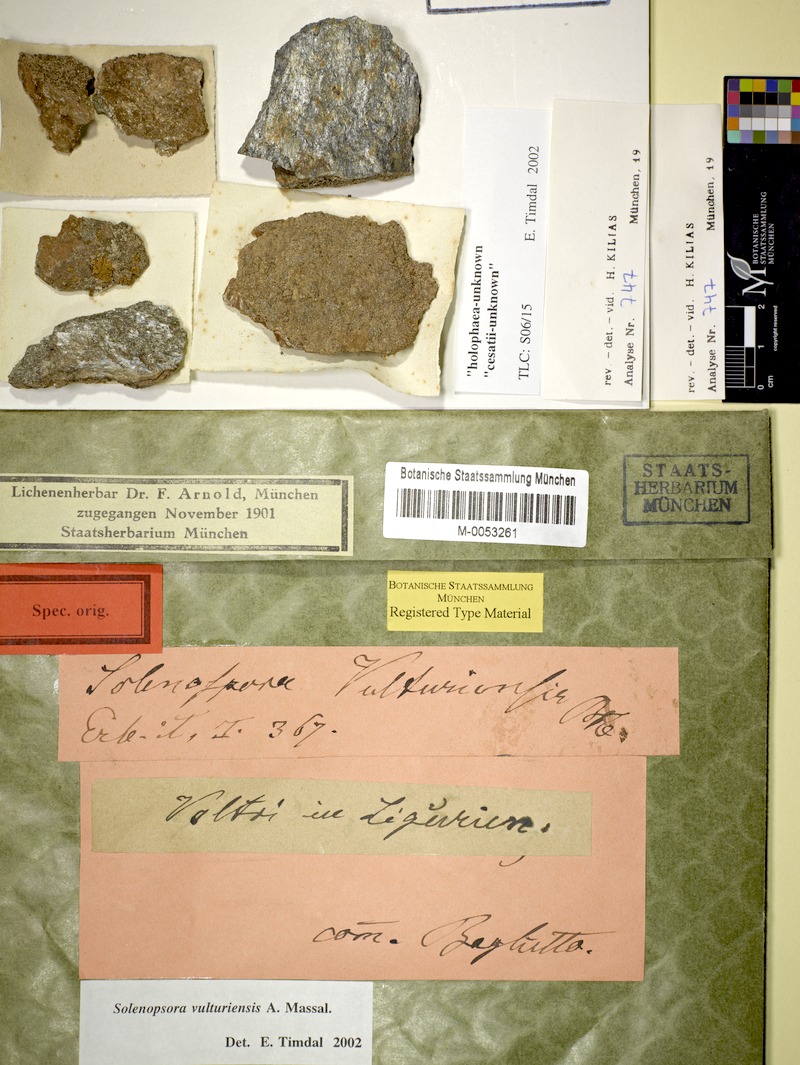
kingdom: Fungi
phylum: Ascomycota
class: Lecanoromycetes
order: Lecanorales
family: Catillariaceae
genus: Solenopsora
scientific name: Solenopsora vulturiensis
